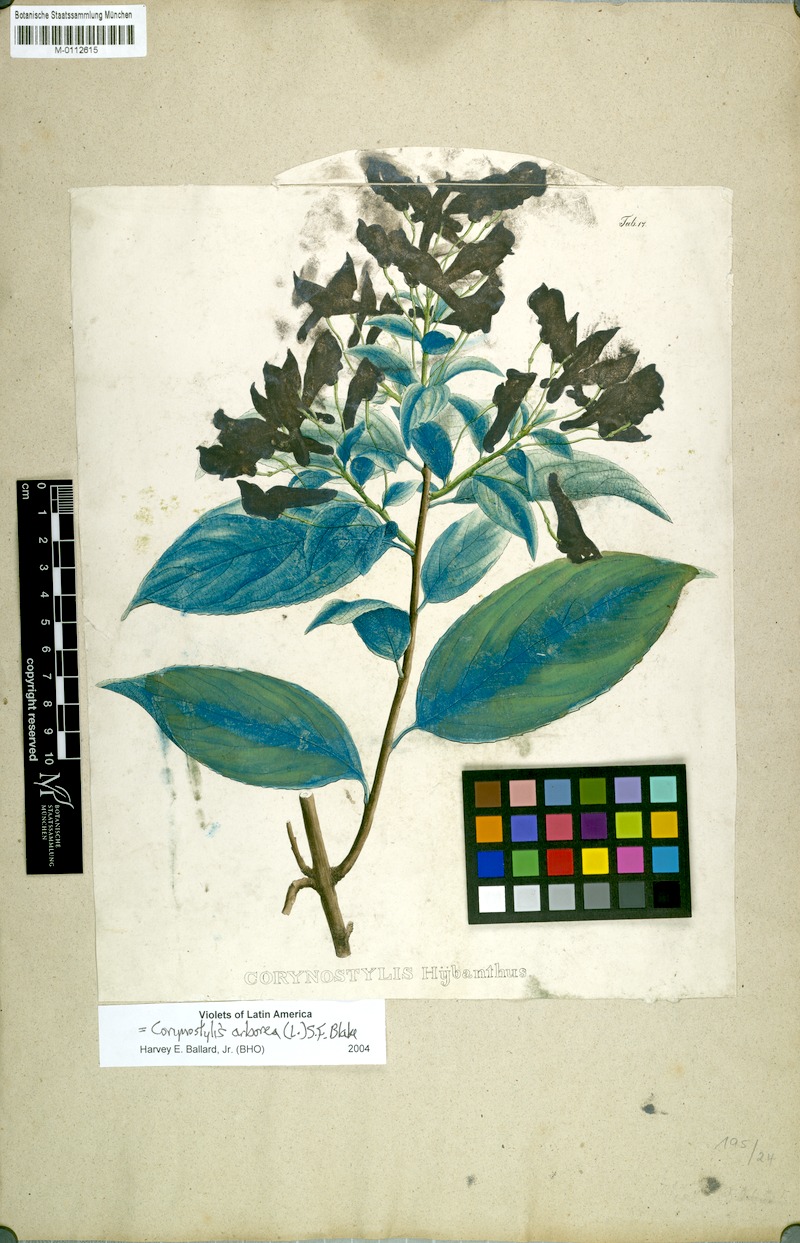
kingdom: Plantae
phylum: Tracheophyta
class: Magnoliopsida
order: Malpighiales
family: Violaceae
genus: Calyptrion
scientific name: Calyptrion arboreum
